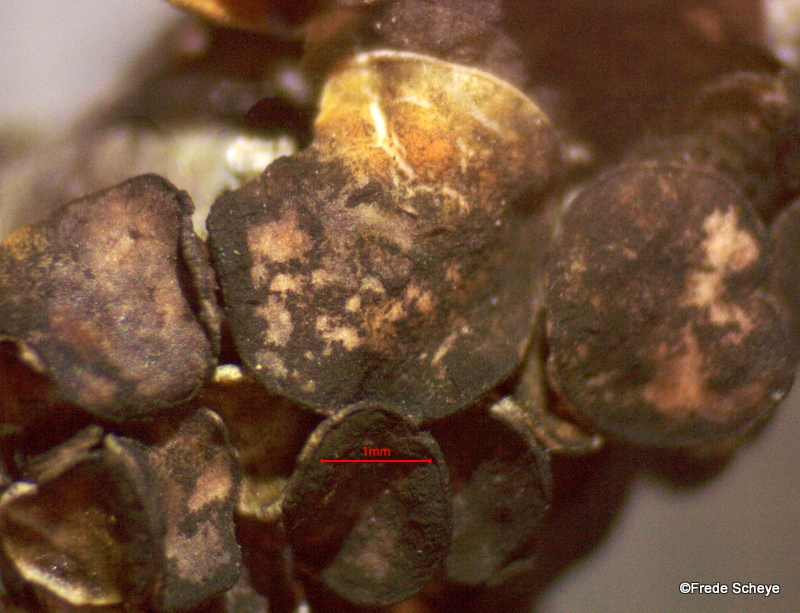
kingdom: Fungi
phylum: Ascomycota
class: Dothideomycetes
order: Mycosphaerellales
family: Teratosphaeriaceae
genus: Xanthoriicola
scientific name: Xanthoriicola physciae
